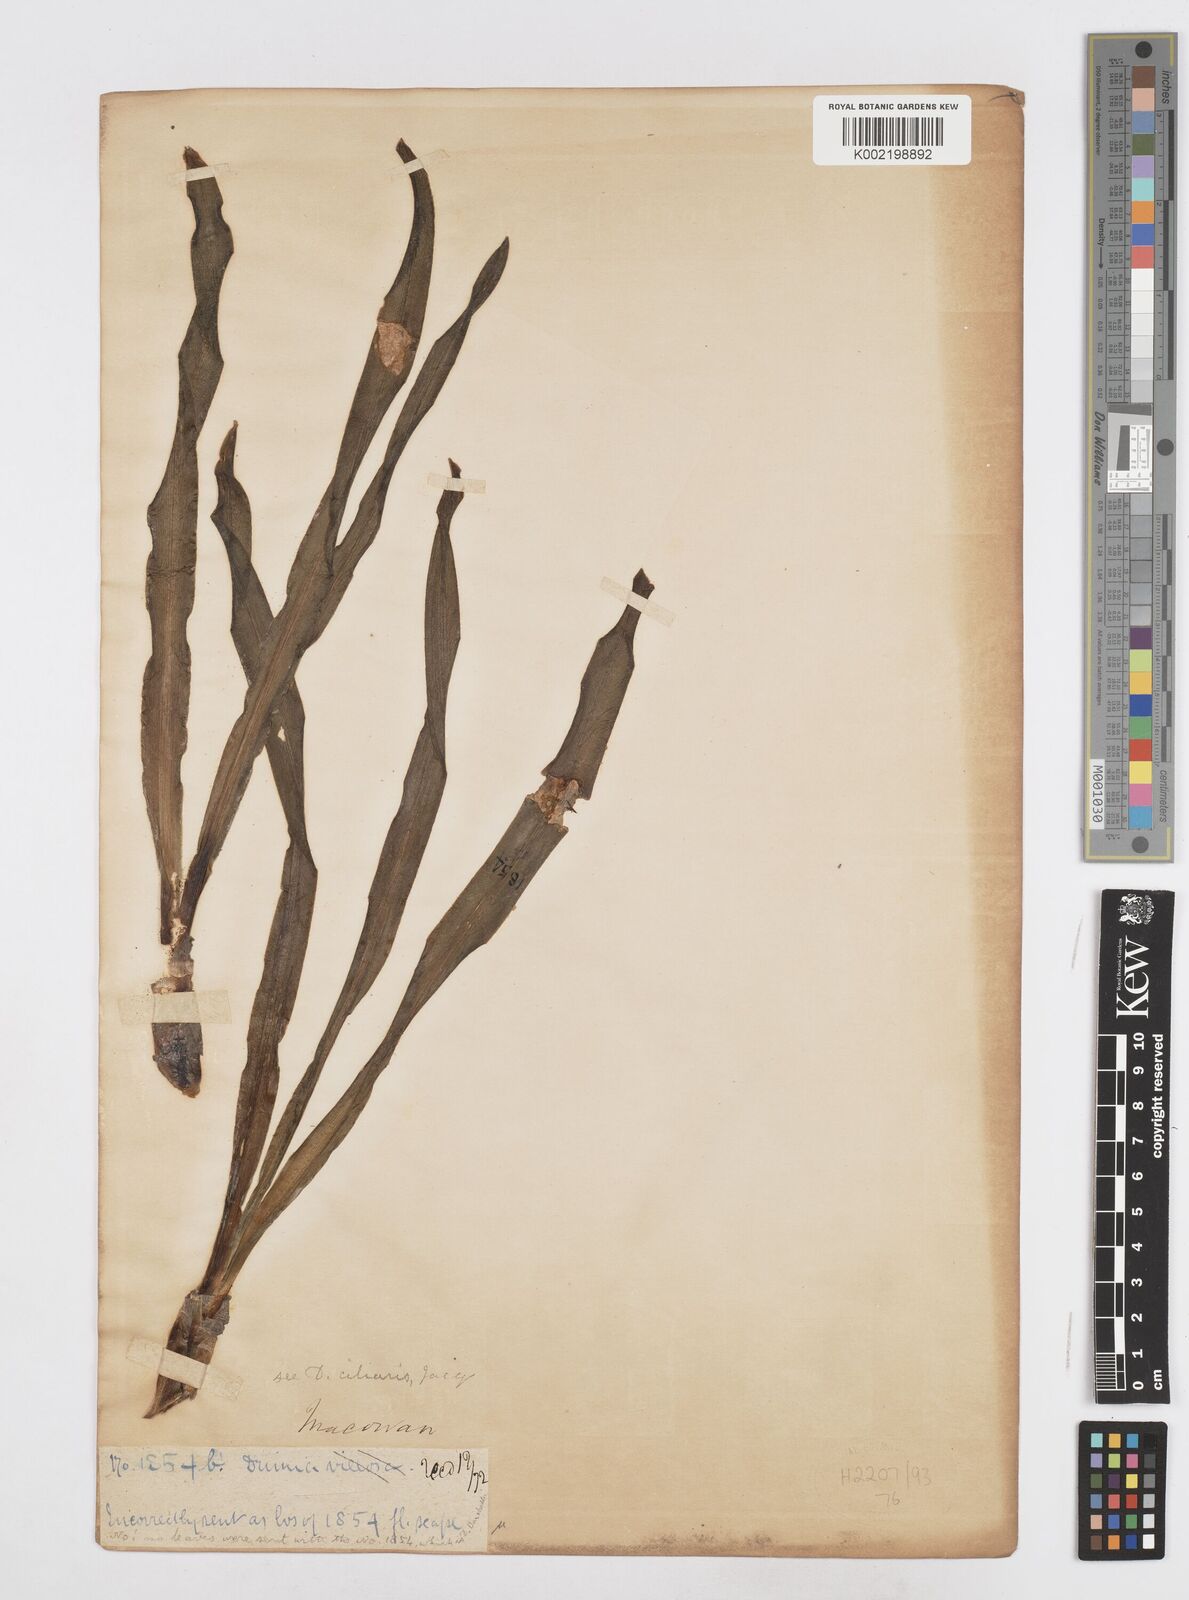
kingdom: Plantae
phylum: Tracheophyta
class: Liliopsida
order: Asparagales
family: Asparagaceae
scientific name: Asparagaceae
